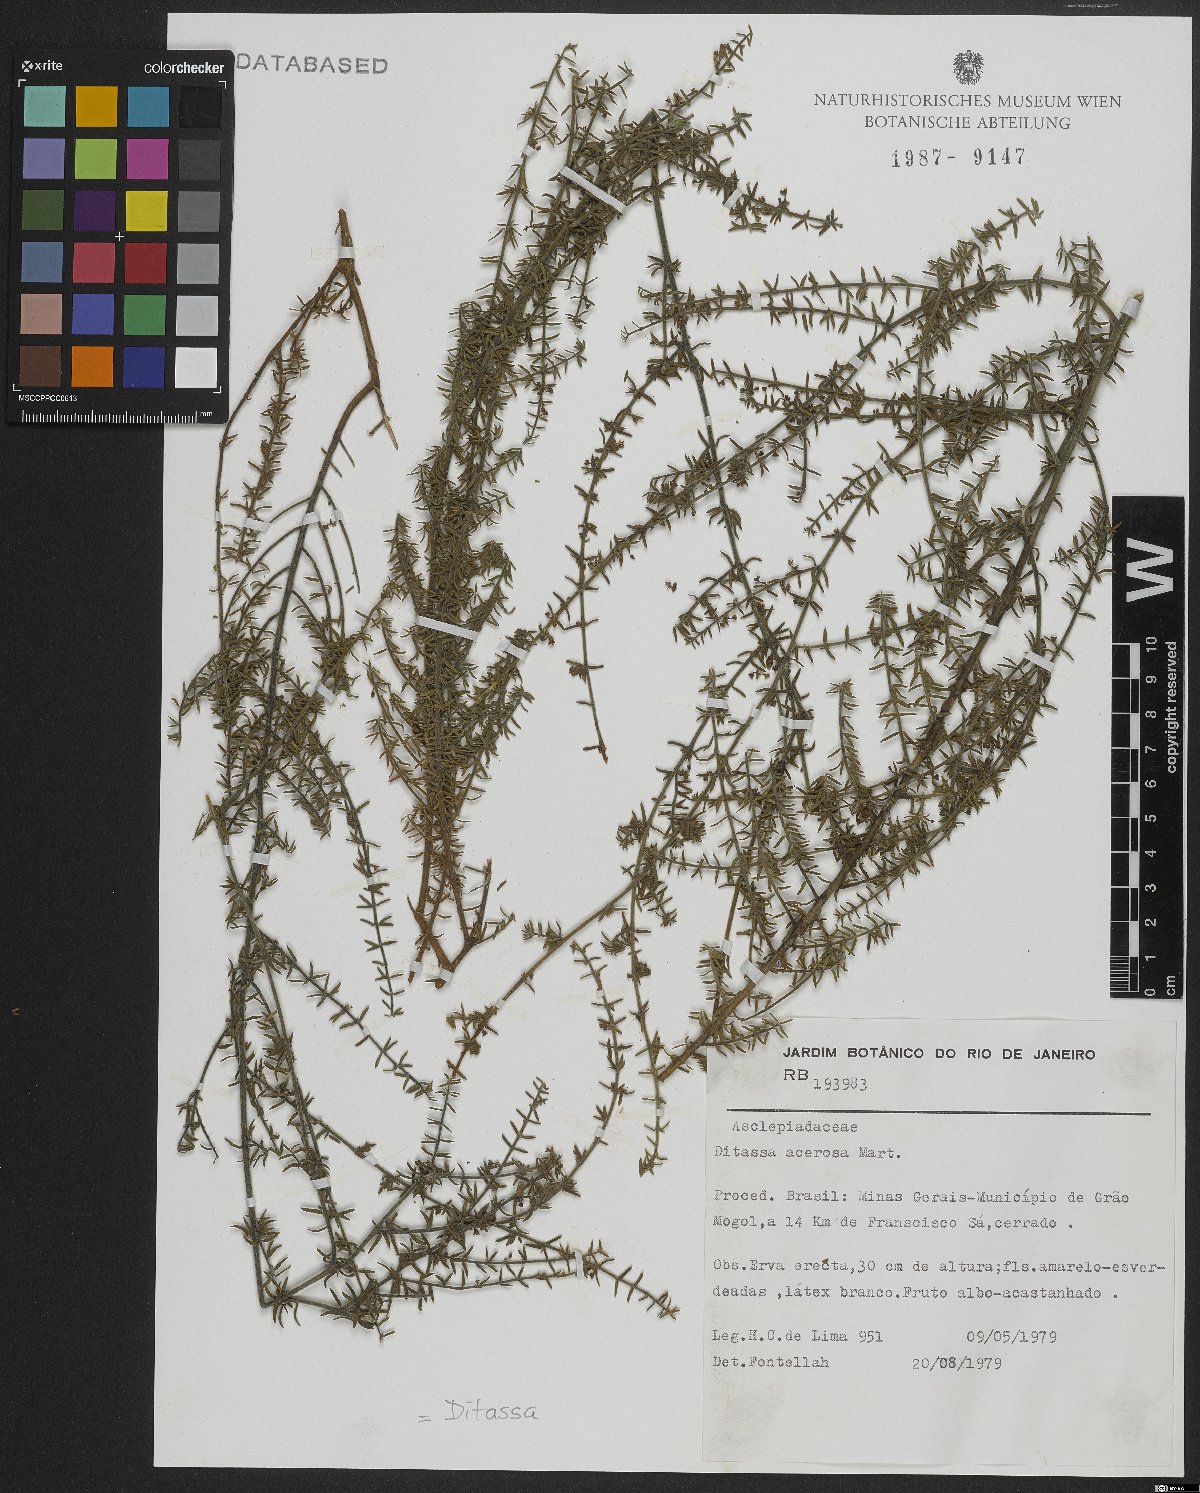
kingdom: Plantae
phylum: Tracheophyta
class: Magnoliopsida
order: Gentianales
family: Apocynaceae
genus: Minaria
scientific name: Minaria acerosa
